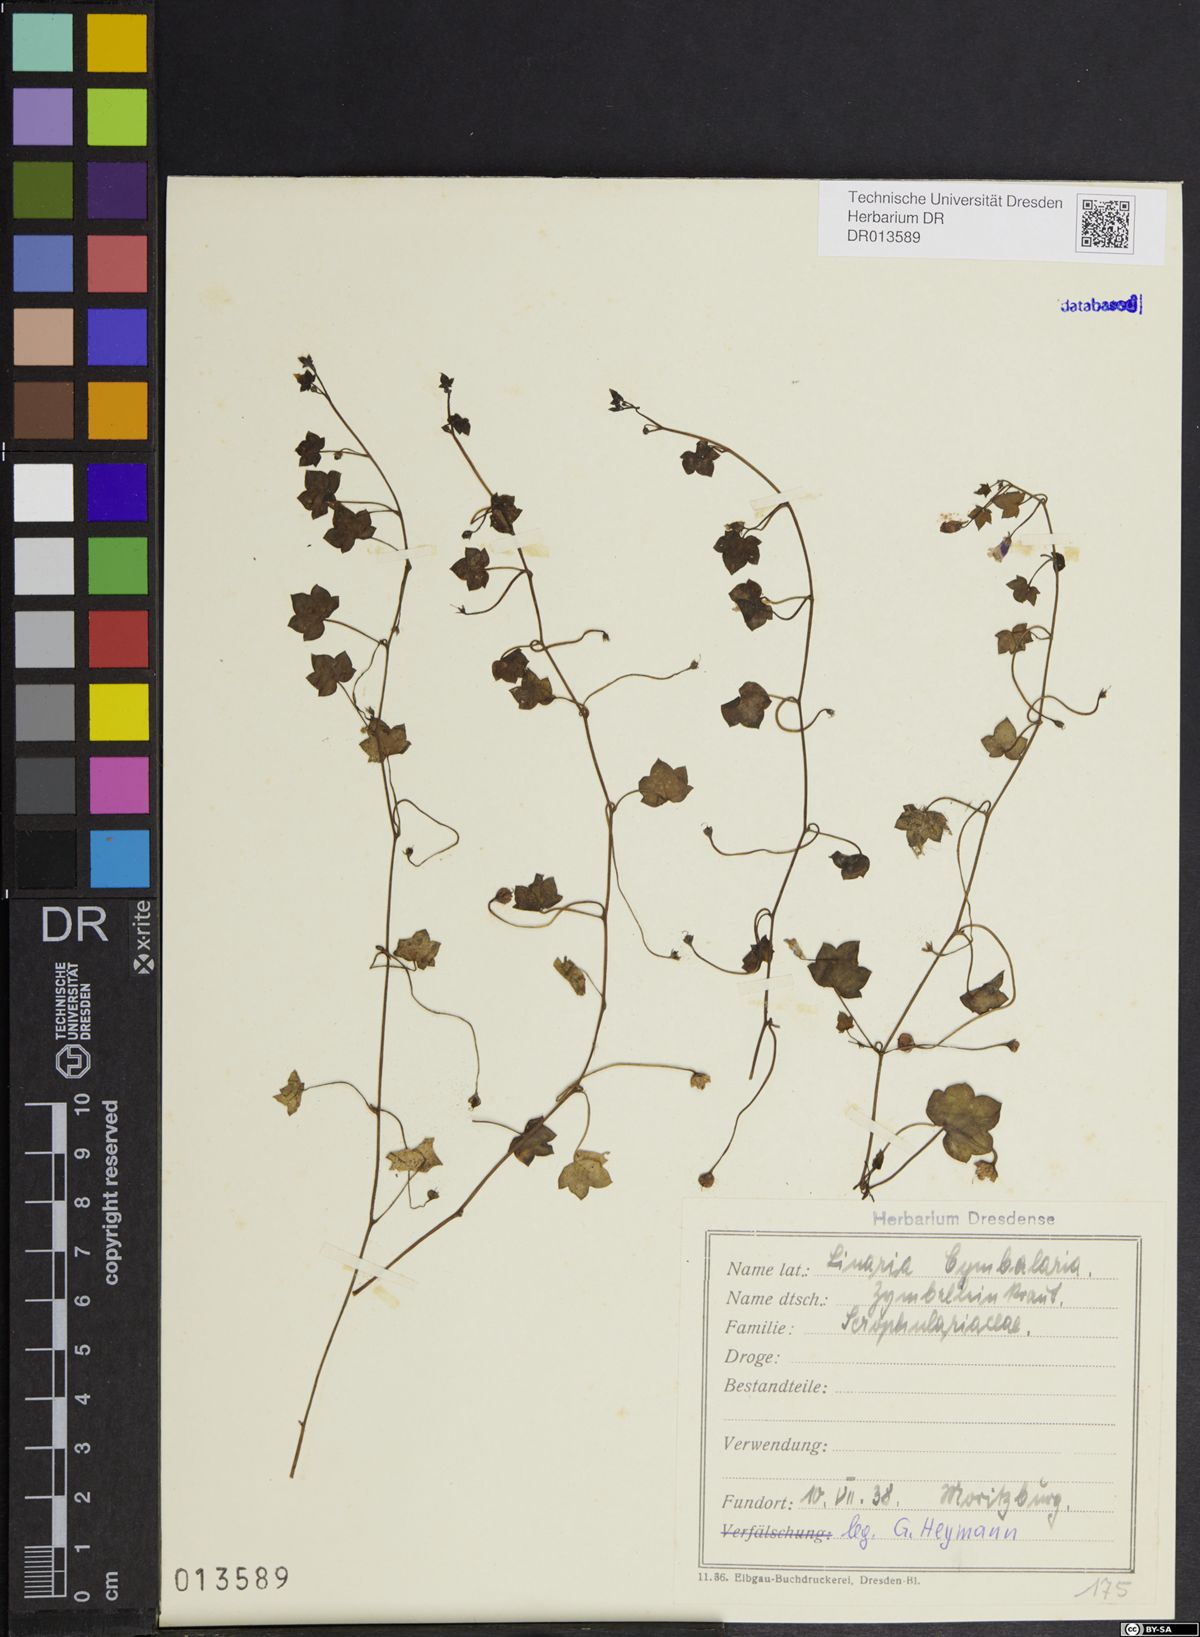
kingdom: Plantae
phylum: Tracheophyta
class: Magnoliopsida
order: Lamiales
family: Plantaginaceae
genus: Cymbalaria
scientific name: Cymbalaria muralis
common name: Ivy-leaved toadflax
